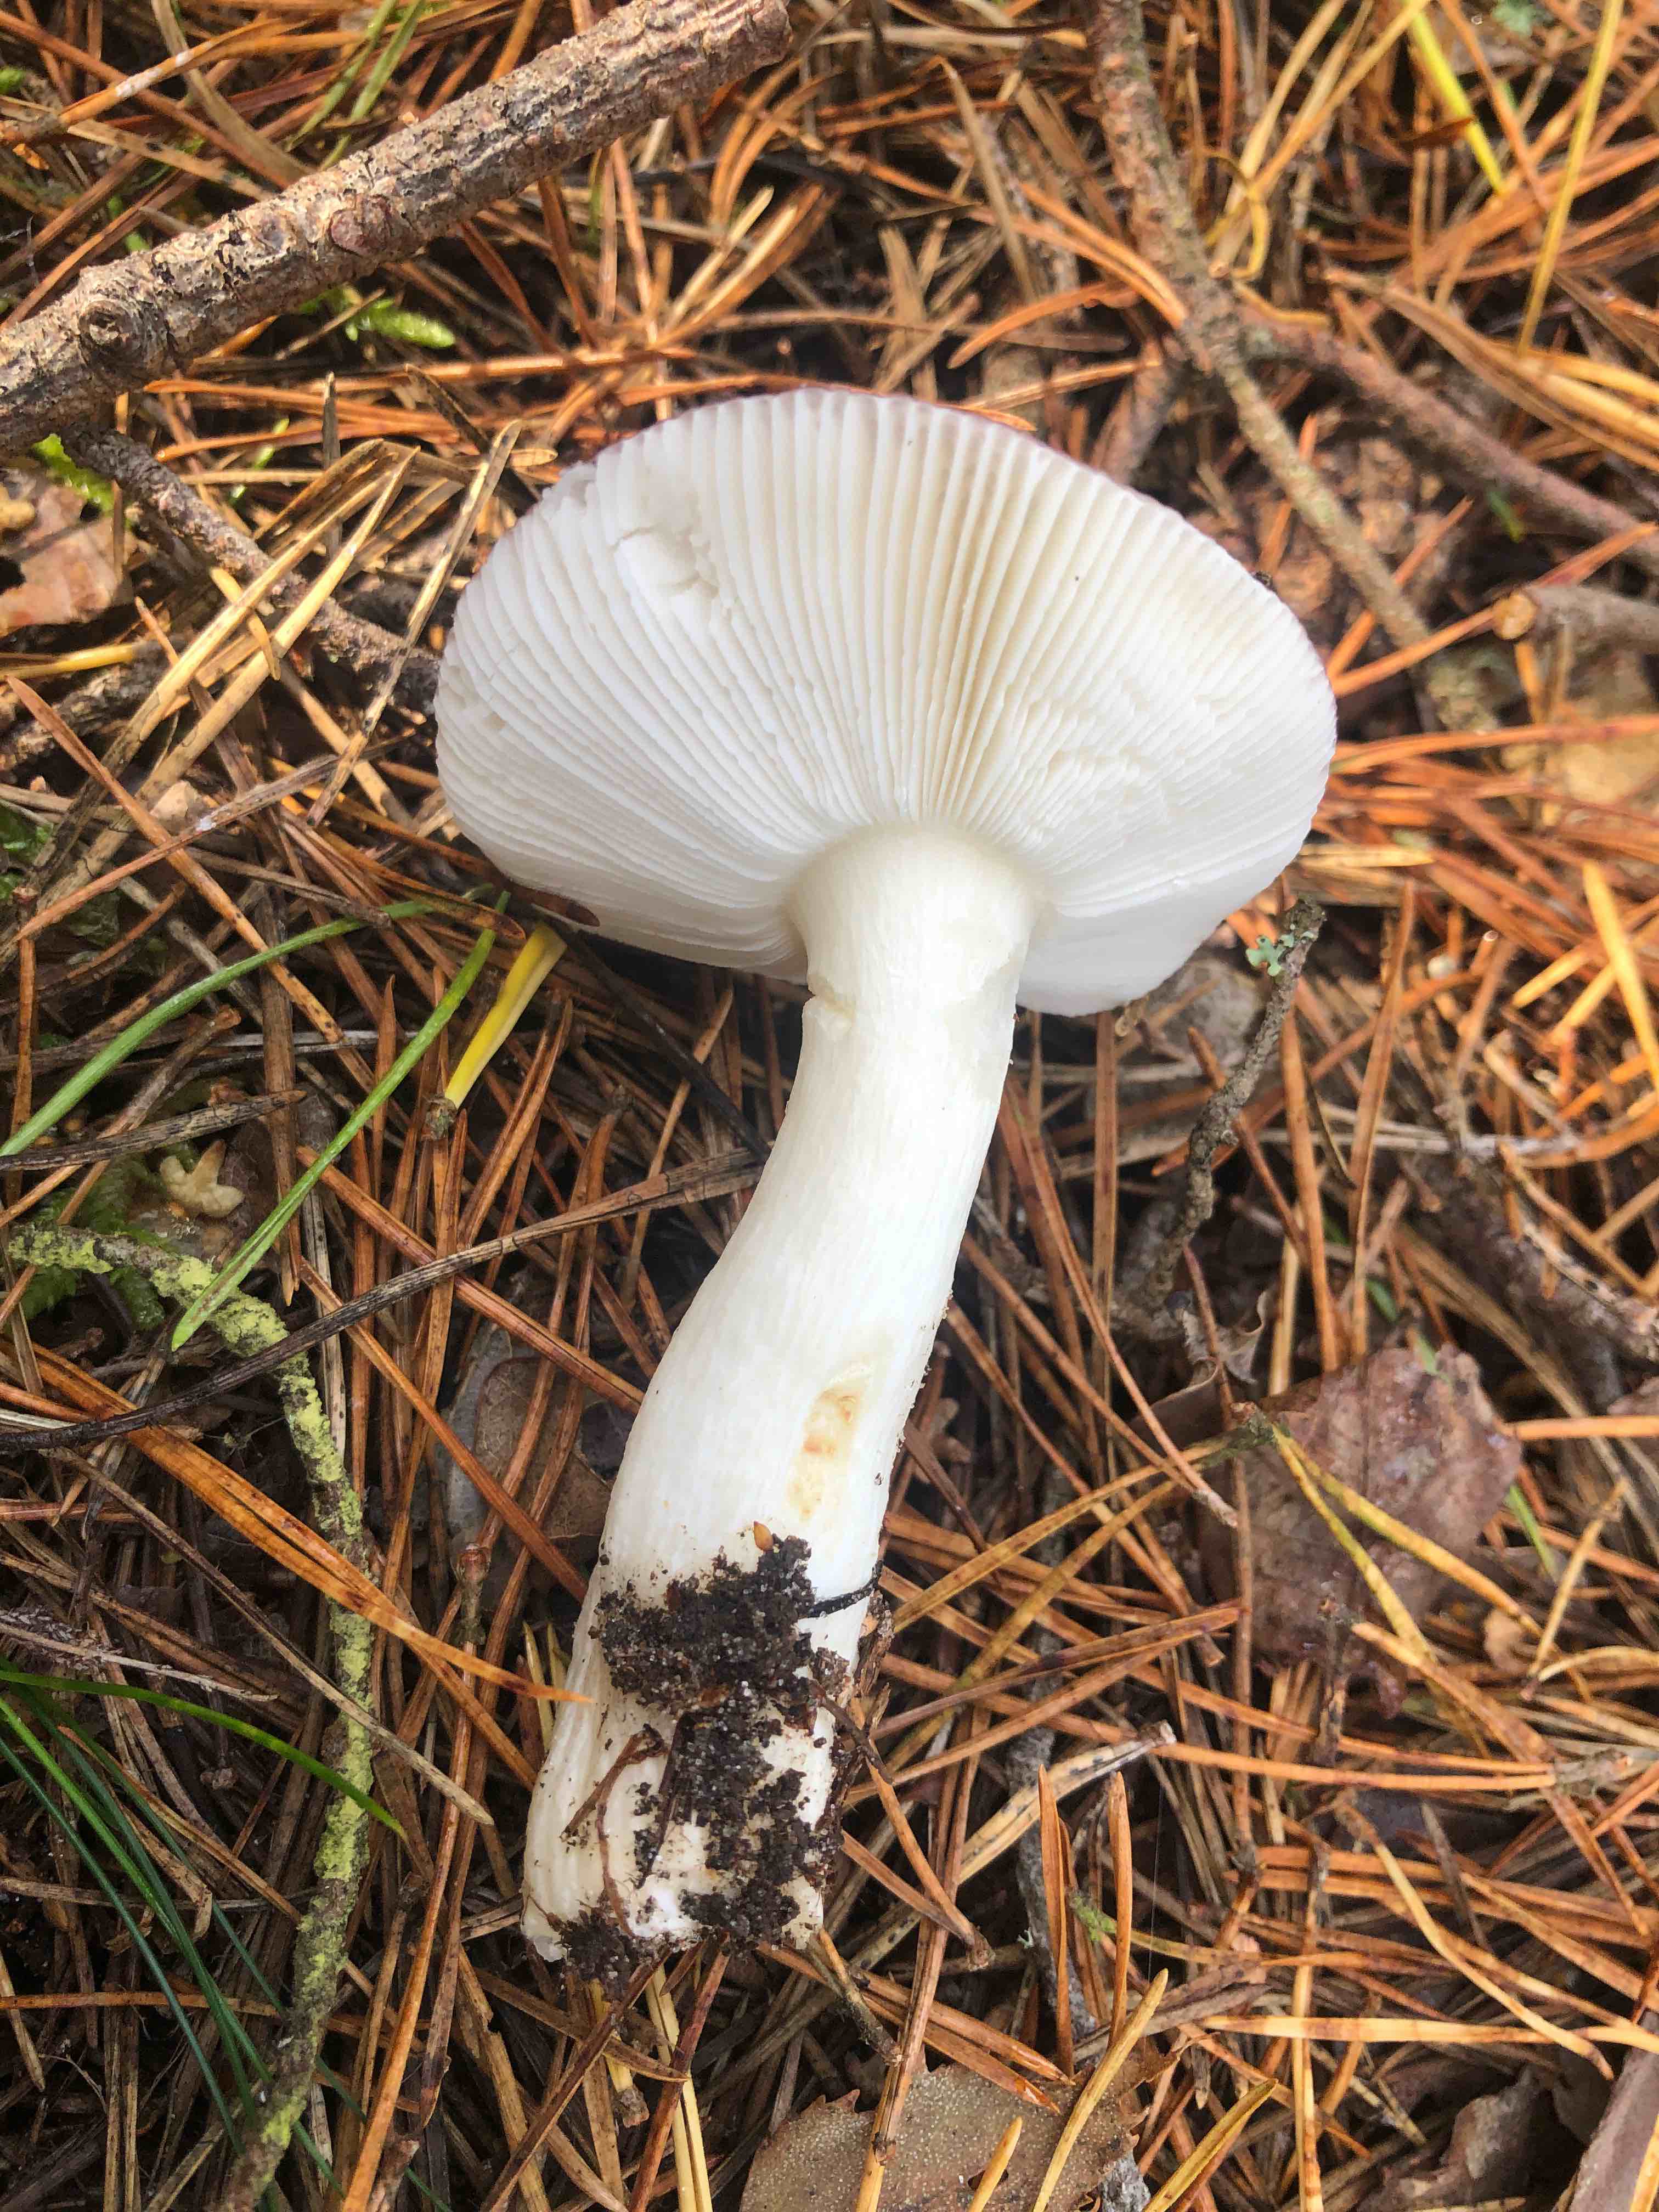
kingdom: Fungi
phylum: Basidiomycota
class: Agaricomycetes
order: Russulales
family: Russulaceae
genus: Russula
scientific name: Russula fragilis
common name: savbladet skørhat
